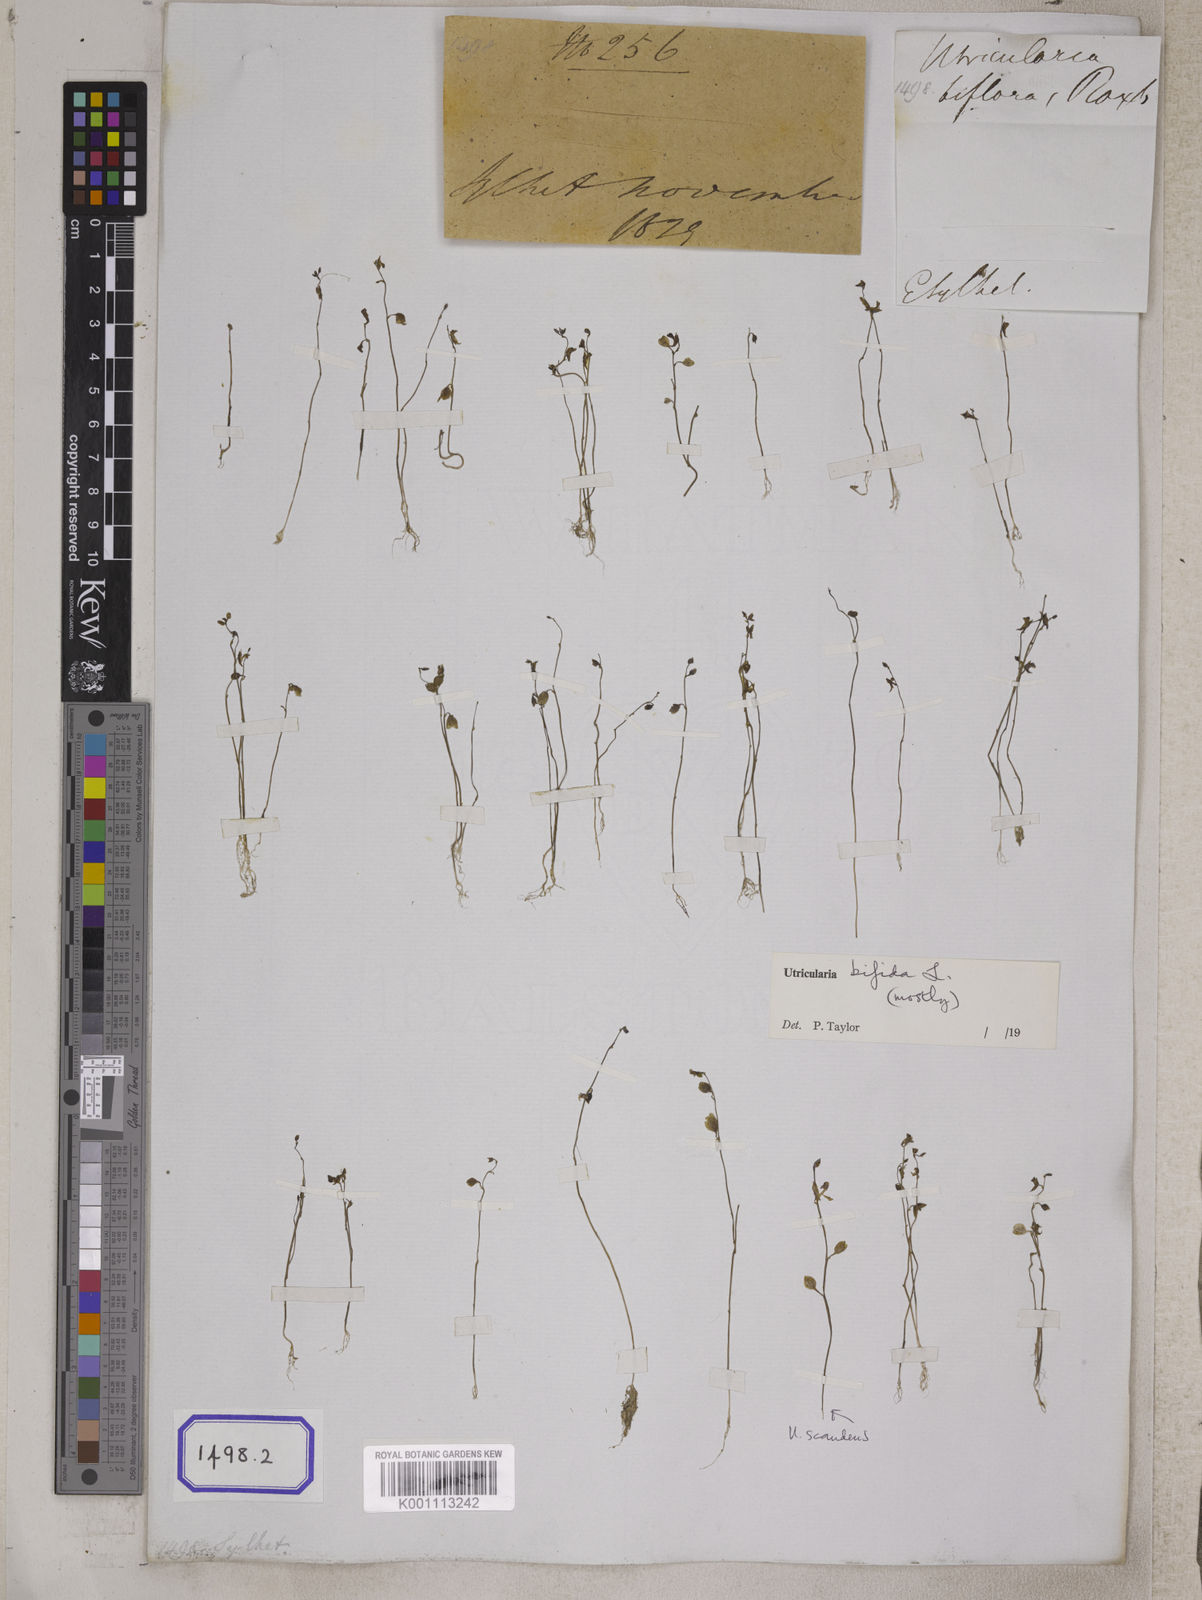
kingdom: Plantae
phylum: Tracheophyta
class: Magnoliopsida
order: Lamiales
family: Lentibulariaceae
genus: Utricularia
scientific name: Utricularia gibba
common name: Humped bladderwort
